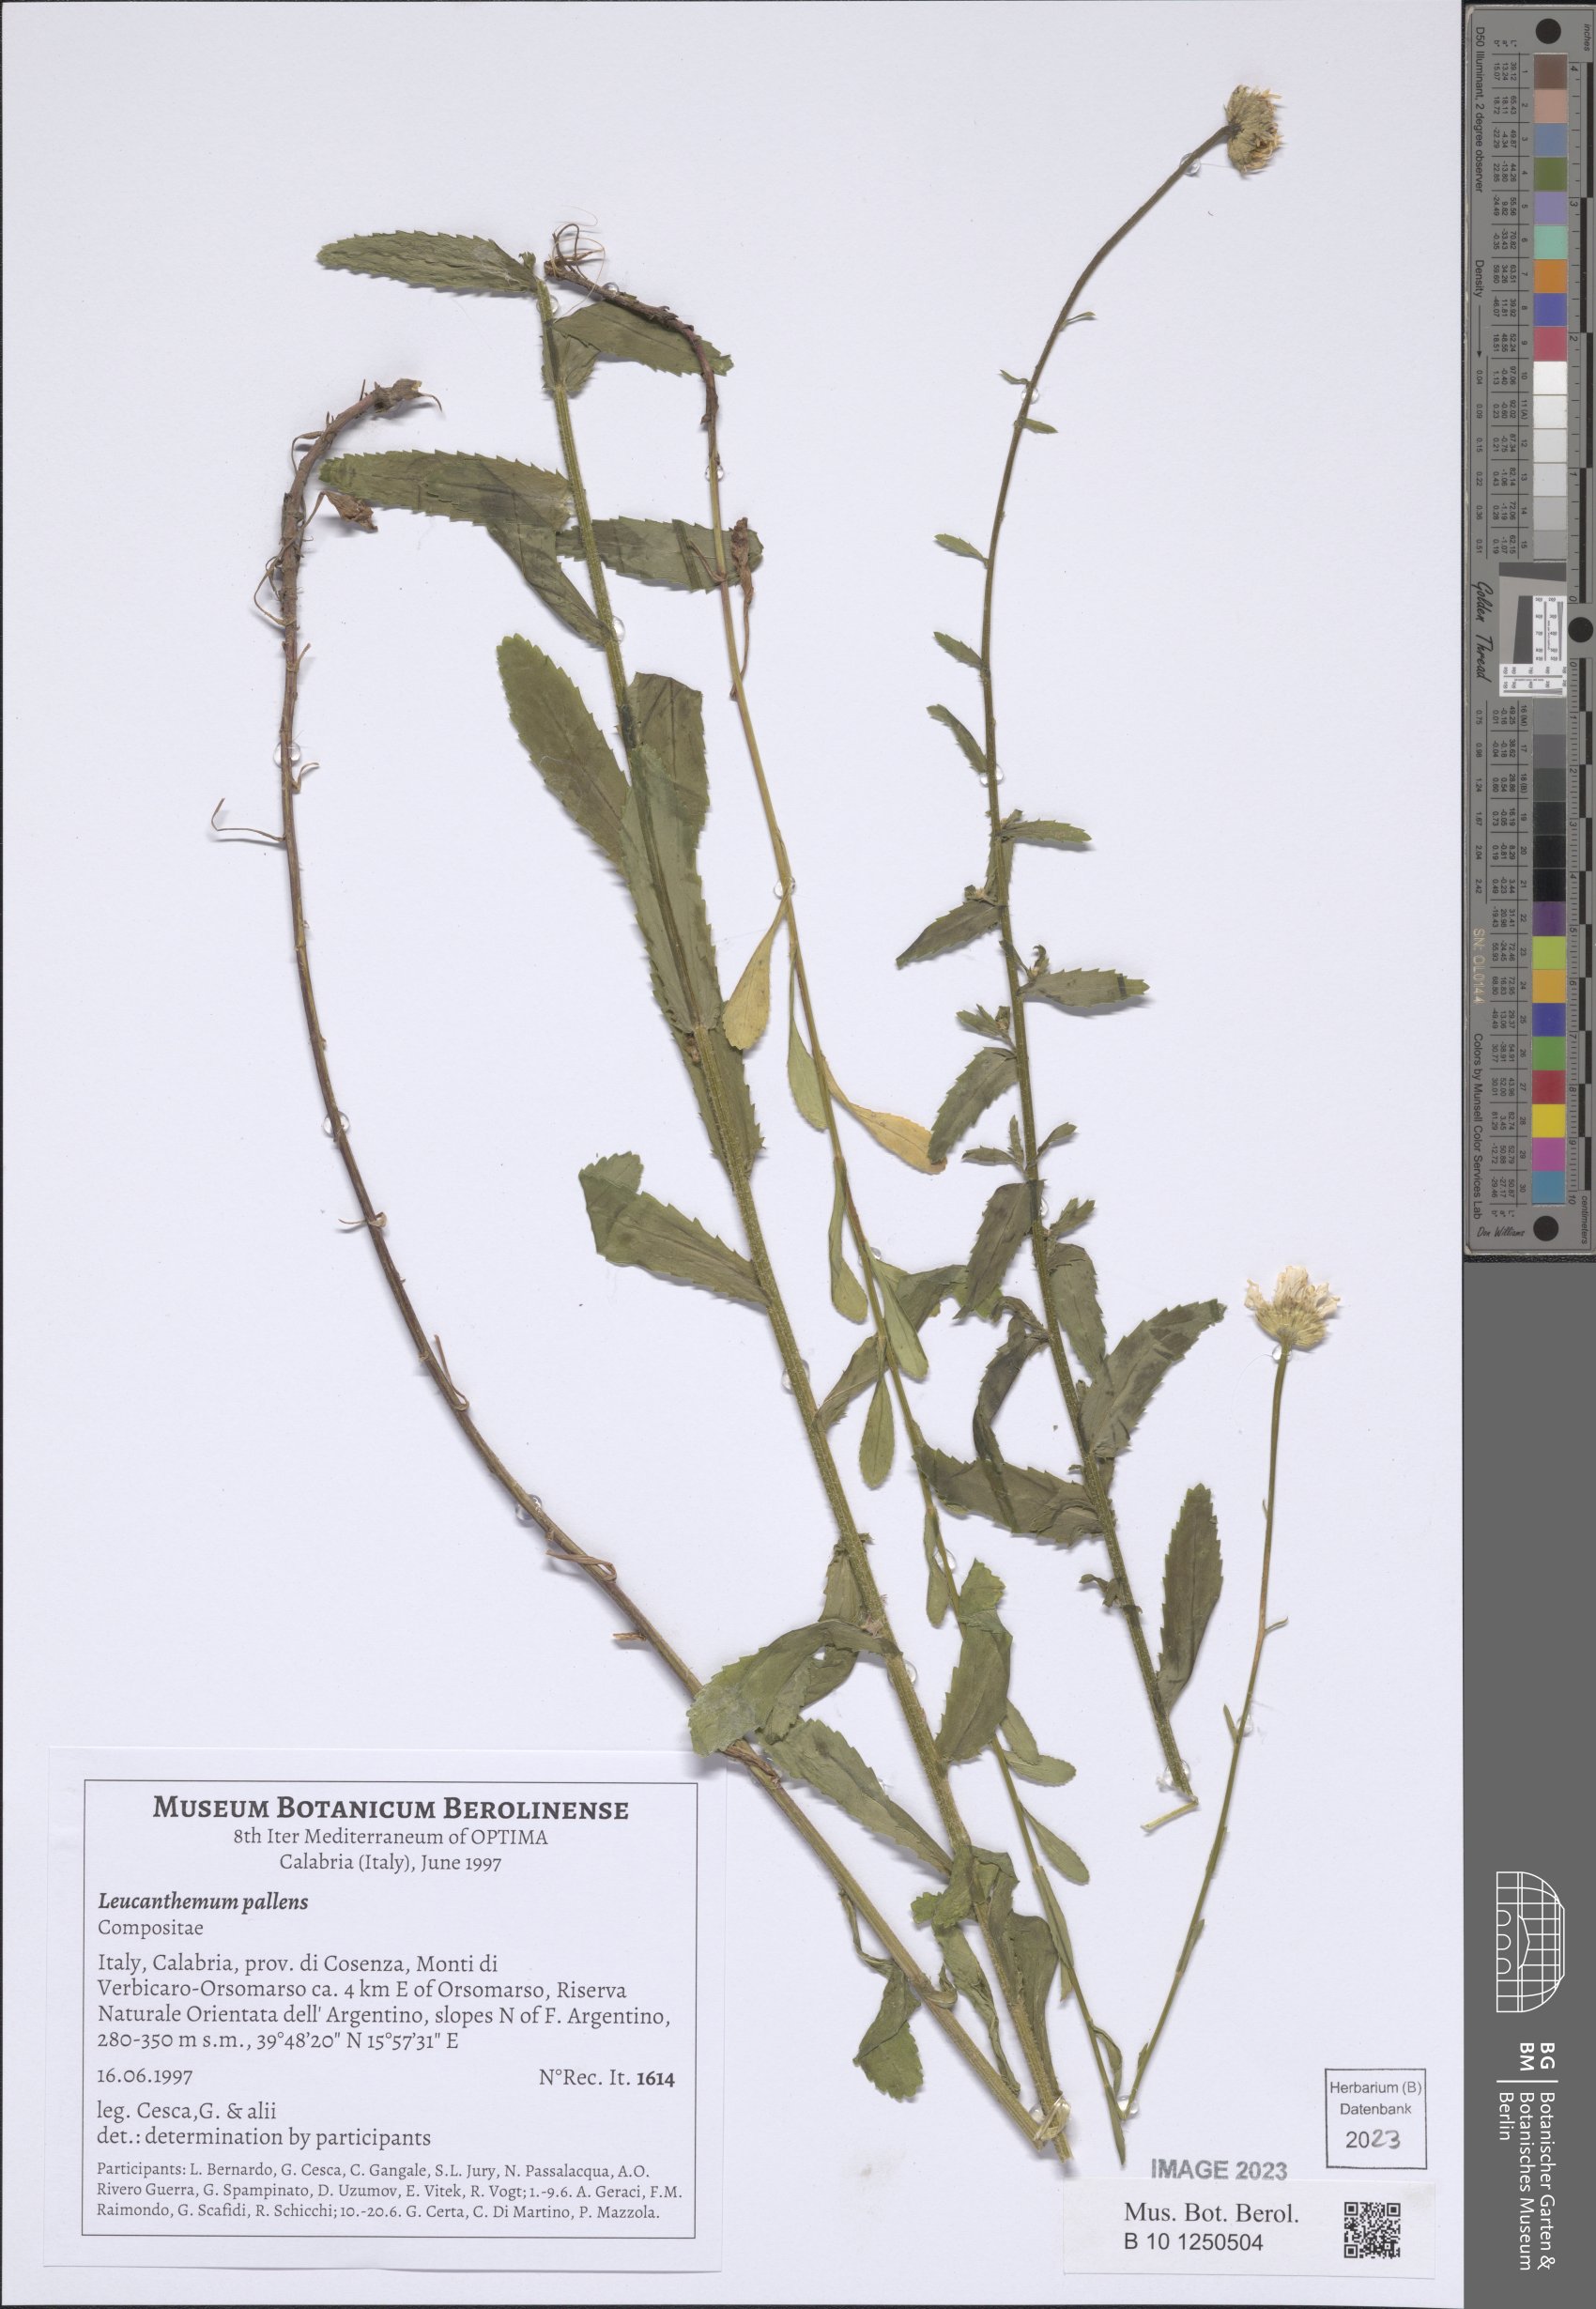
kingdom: Plantae
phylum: Tracheophyta
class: Magnoliopsida
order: Asterales
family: Asteraceae
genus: Leucanthemum
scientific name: Leucanthemum pallens
